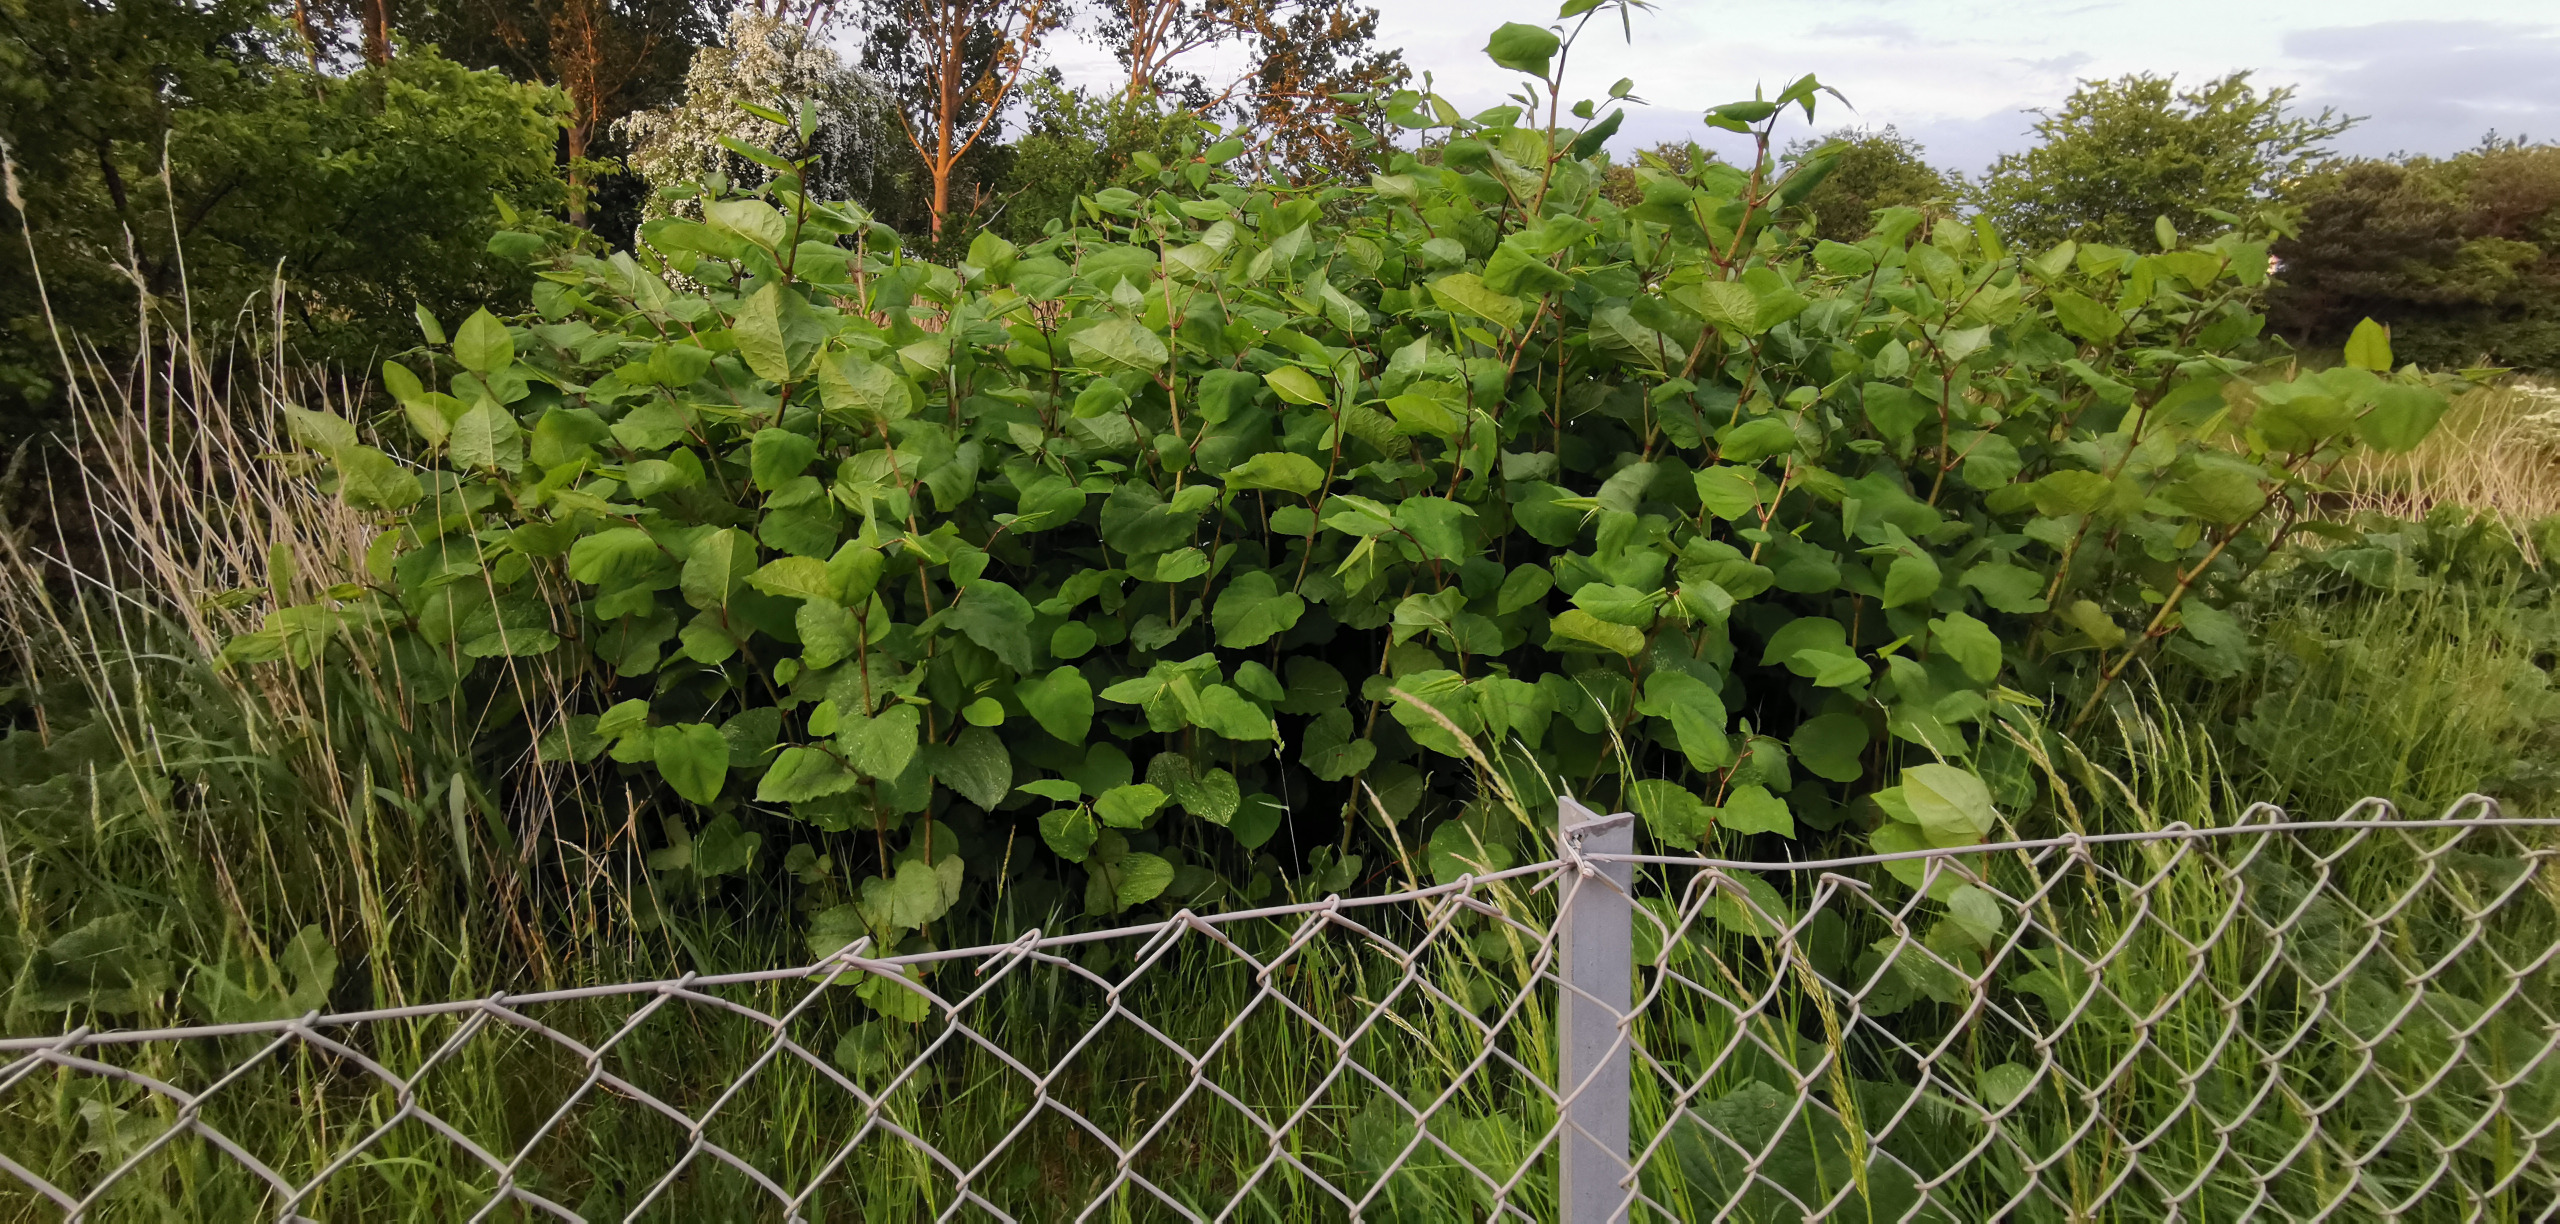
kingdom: Plantae
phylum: Tracheophyta
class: Magnoliopsida
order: Caryophyllales
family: Polygonaceae
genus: Reynoutria
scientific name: Reynoutria bohemica
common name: Hybrid-pileurt
